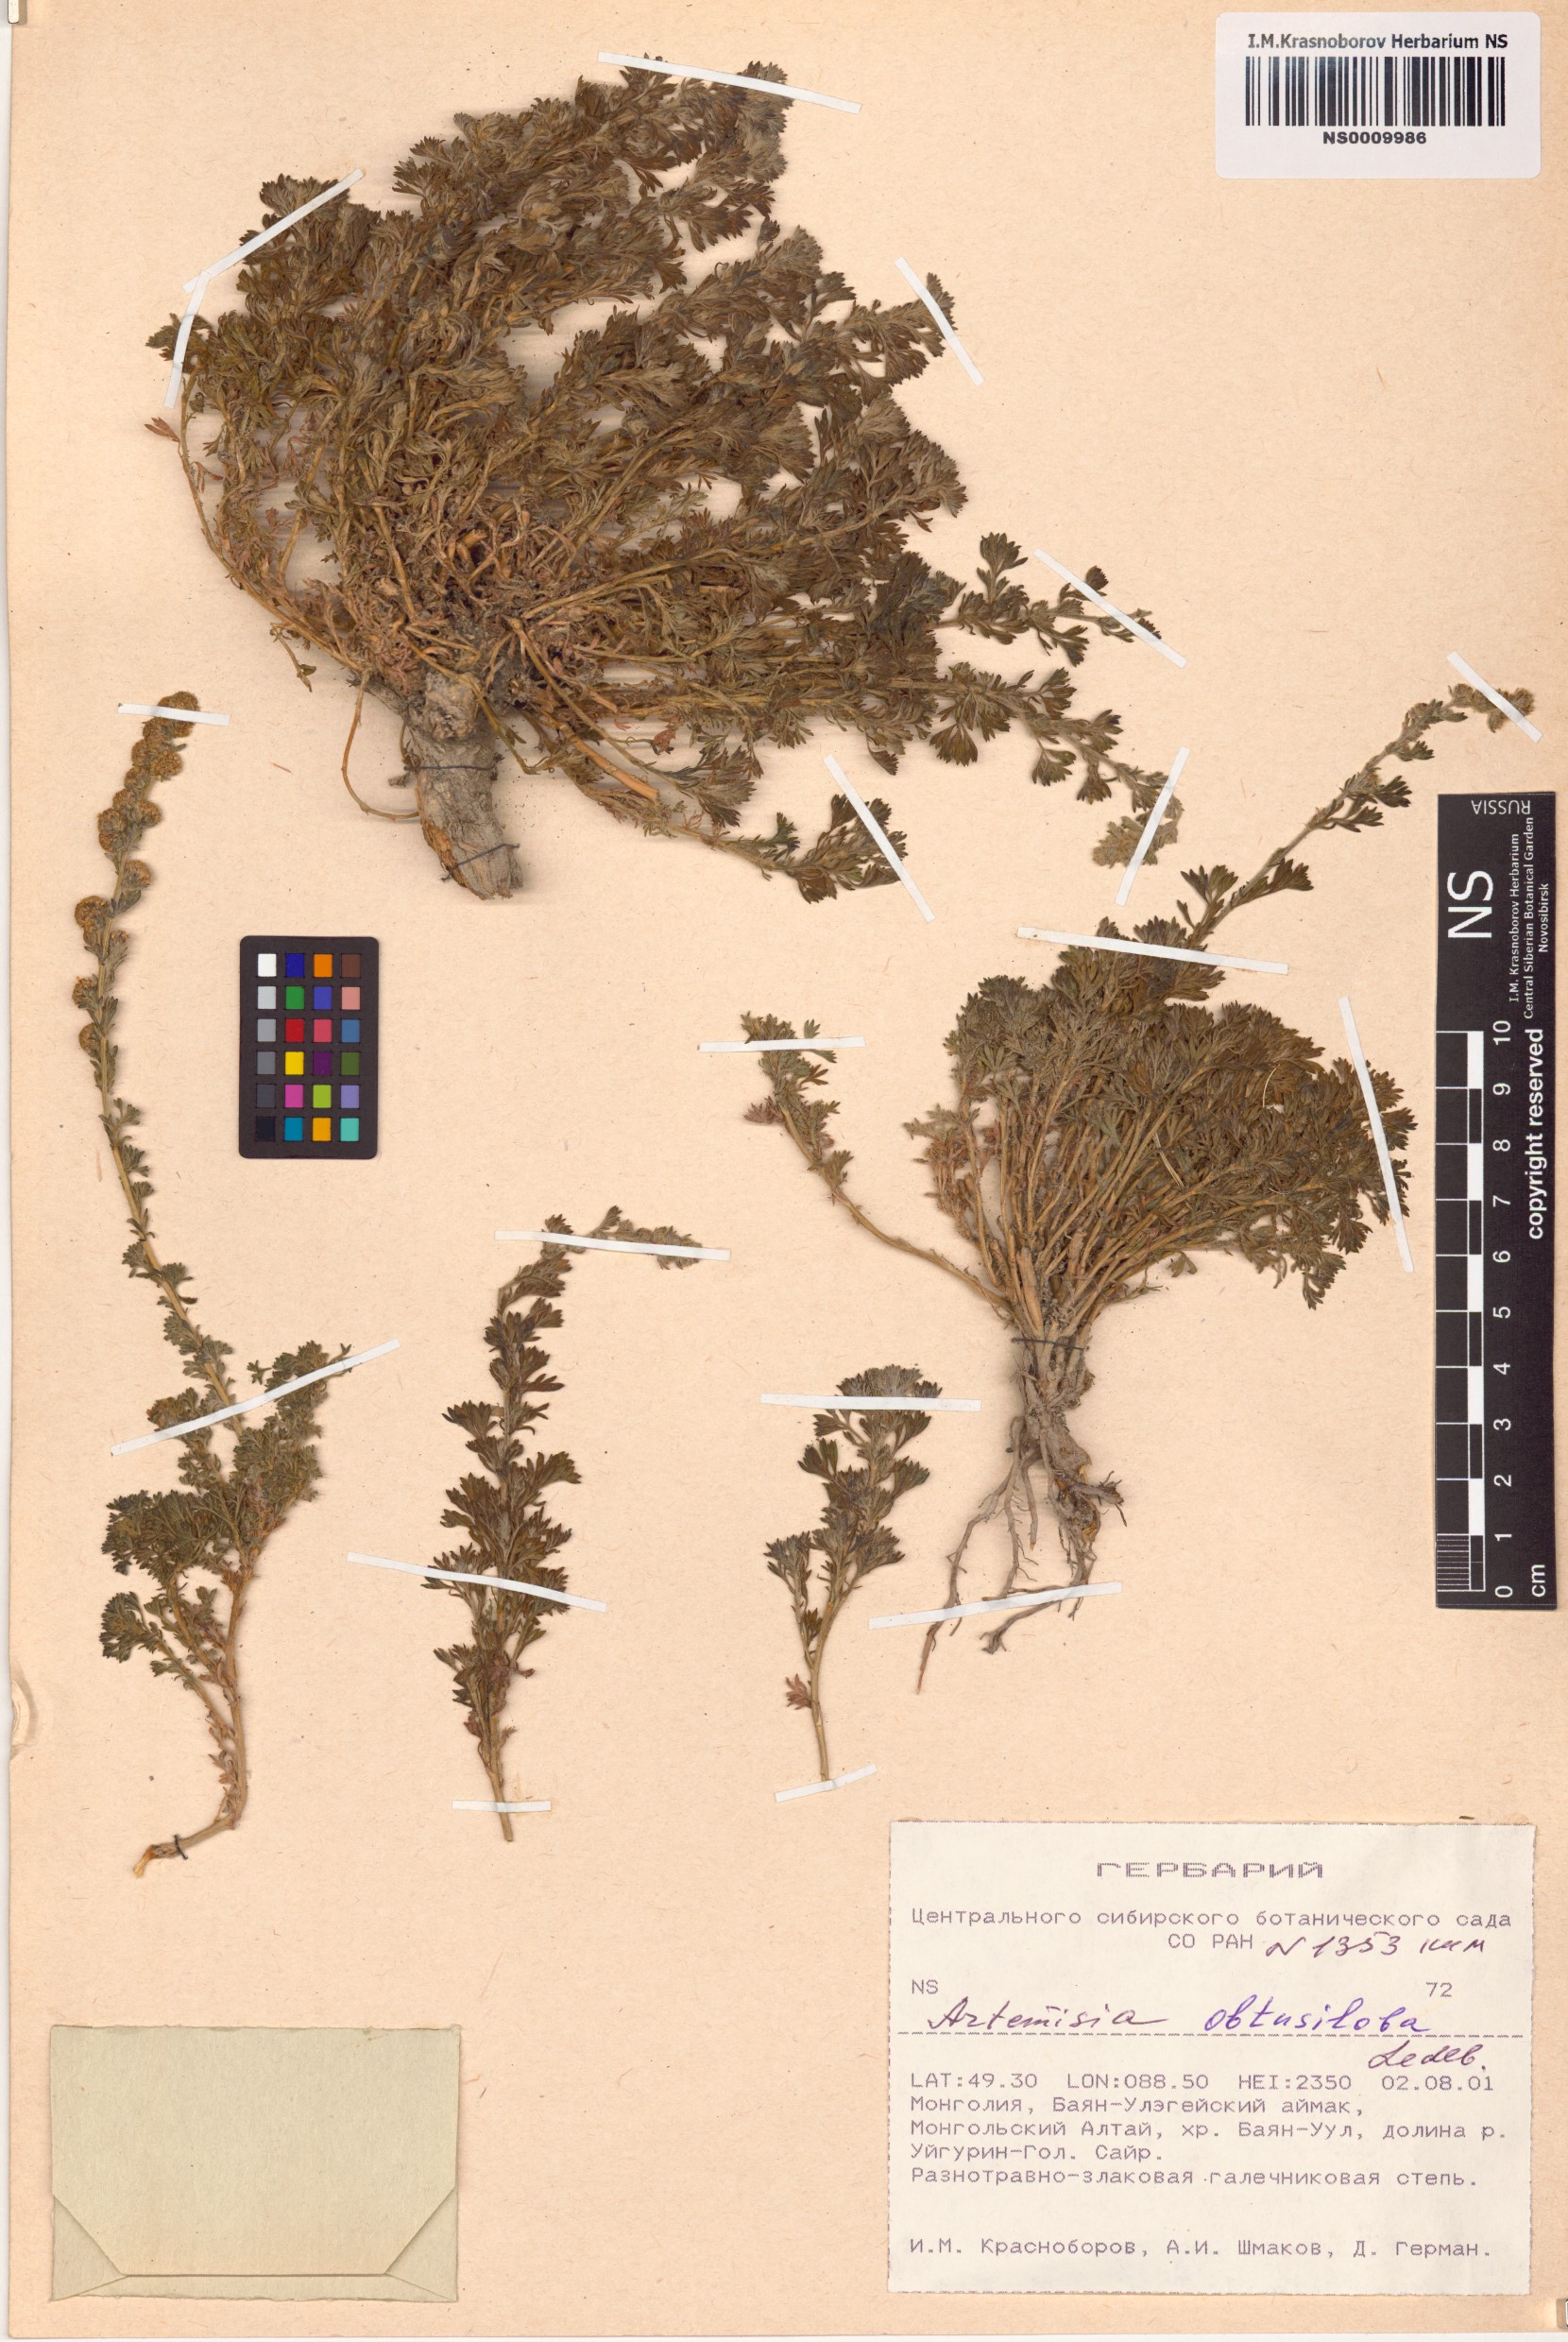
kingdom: Plantae
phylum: Tracheophyta
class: Magnoliopsida
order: Asterales
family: Asteraceae
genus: Artemisia
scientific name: Artemisia obtusiloba
